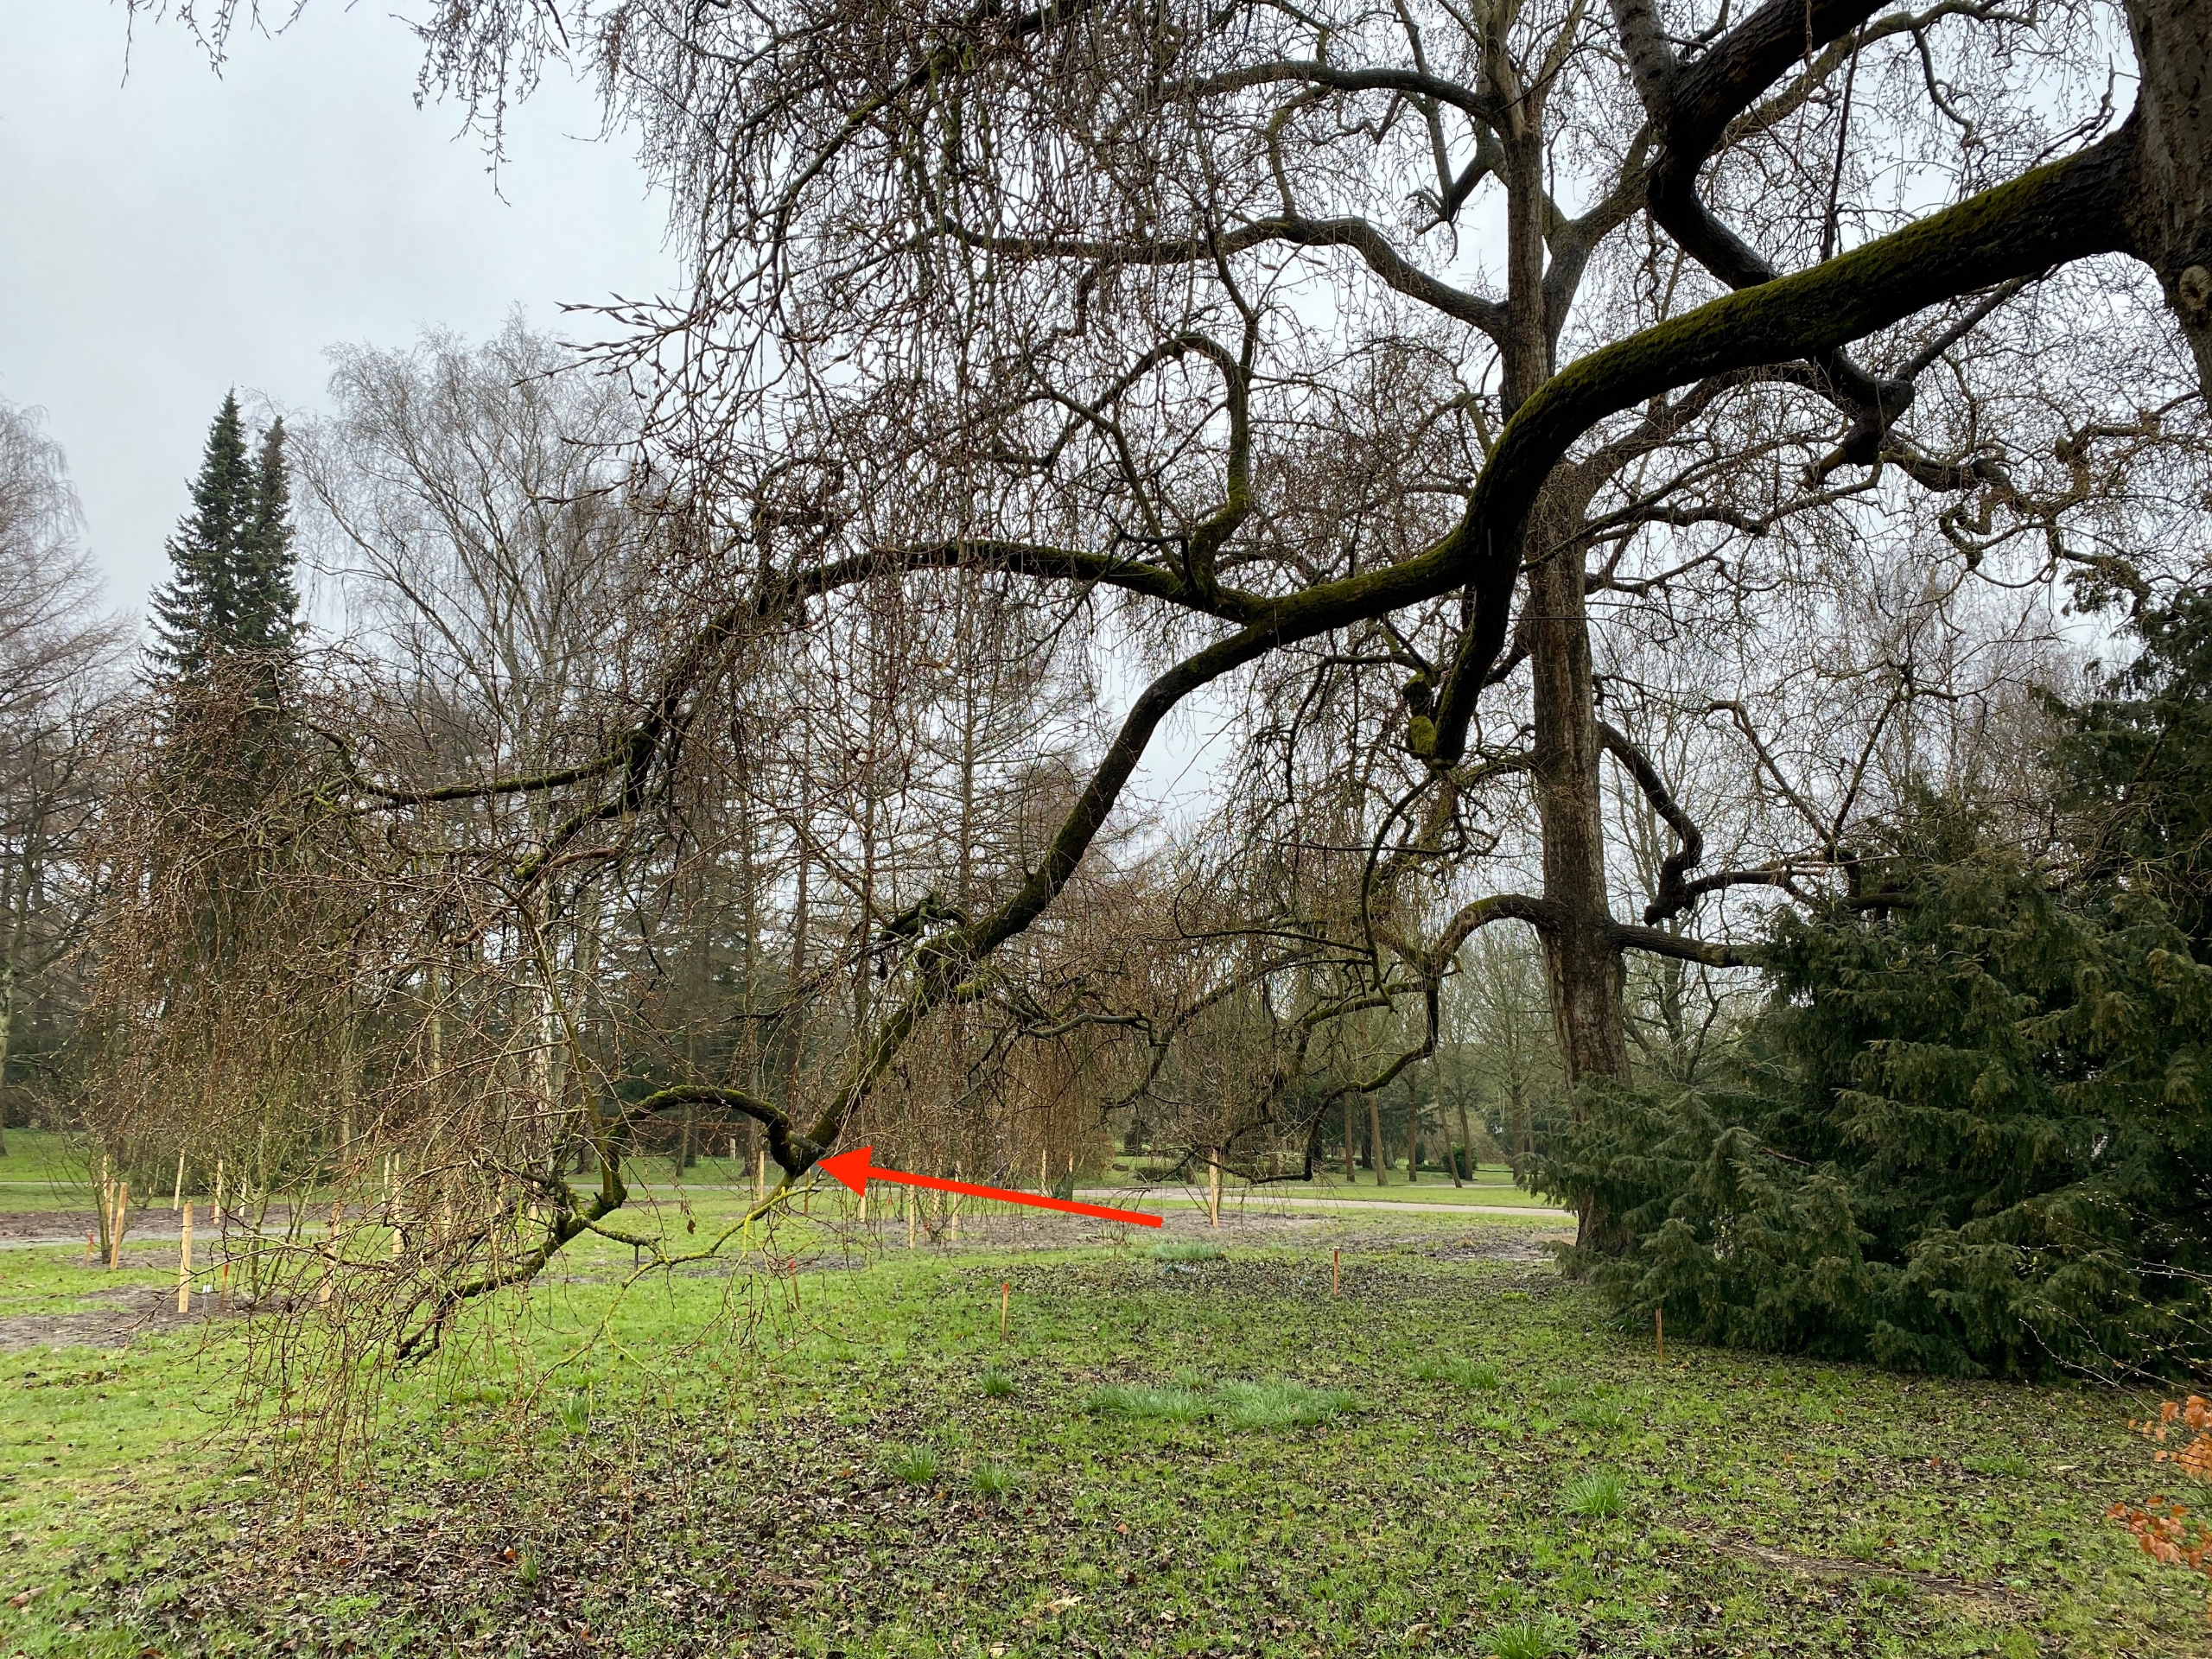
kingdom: Plantae
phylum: Bryophyta
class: Bryopsida
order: Orthotrichales
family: Orthotrichaceae
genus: Nyholmiella
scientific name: Nyholmiella obtusifolia
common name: Butbladet furehætte
